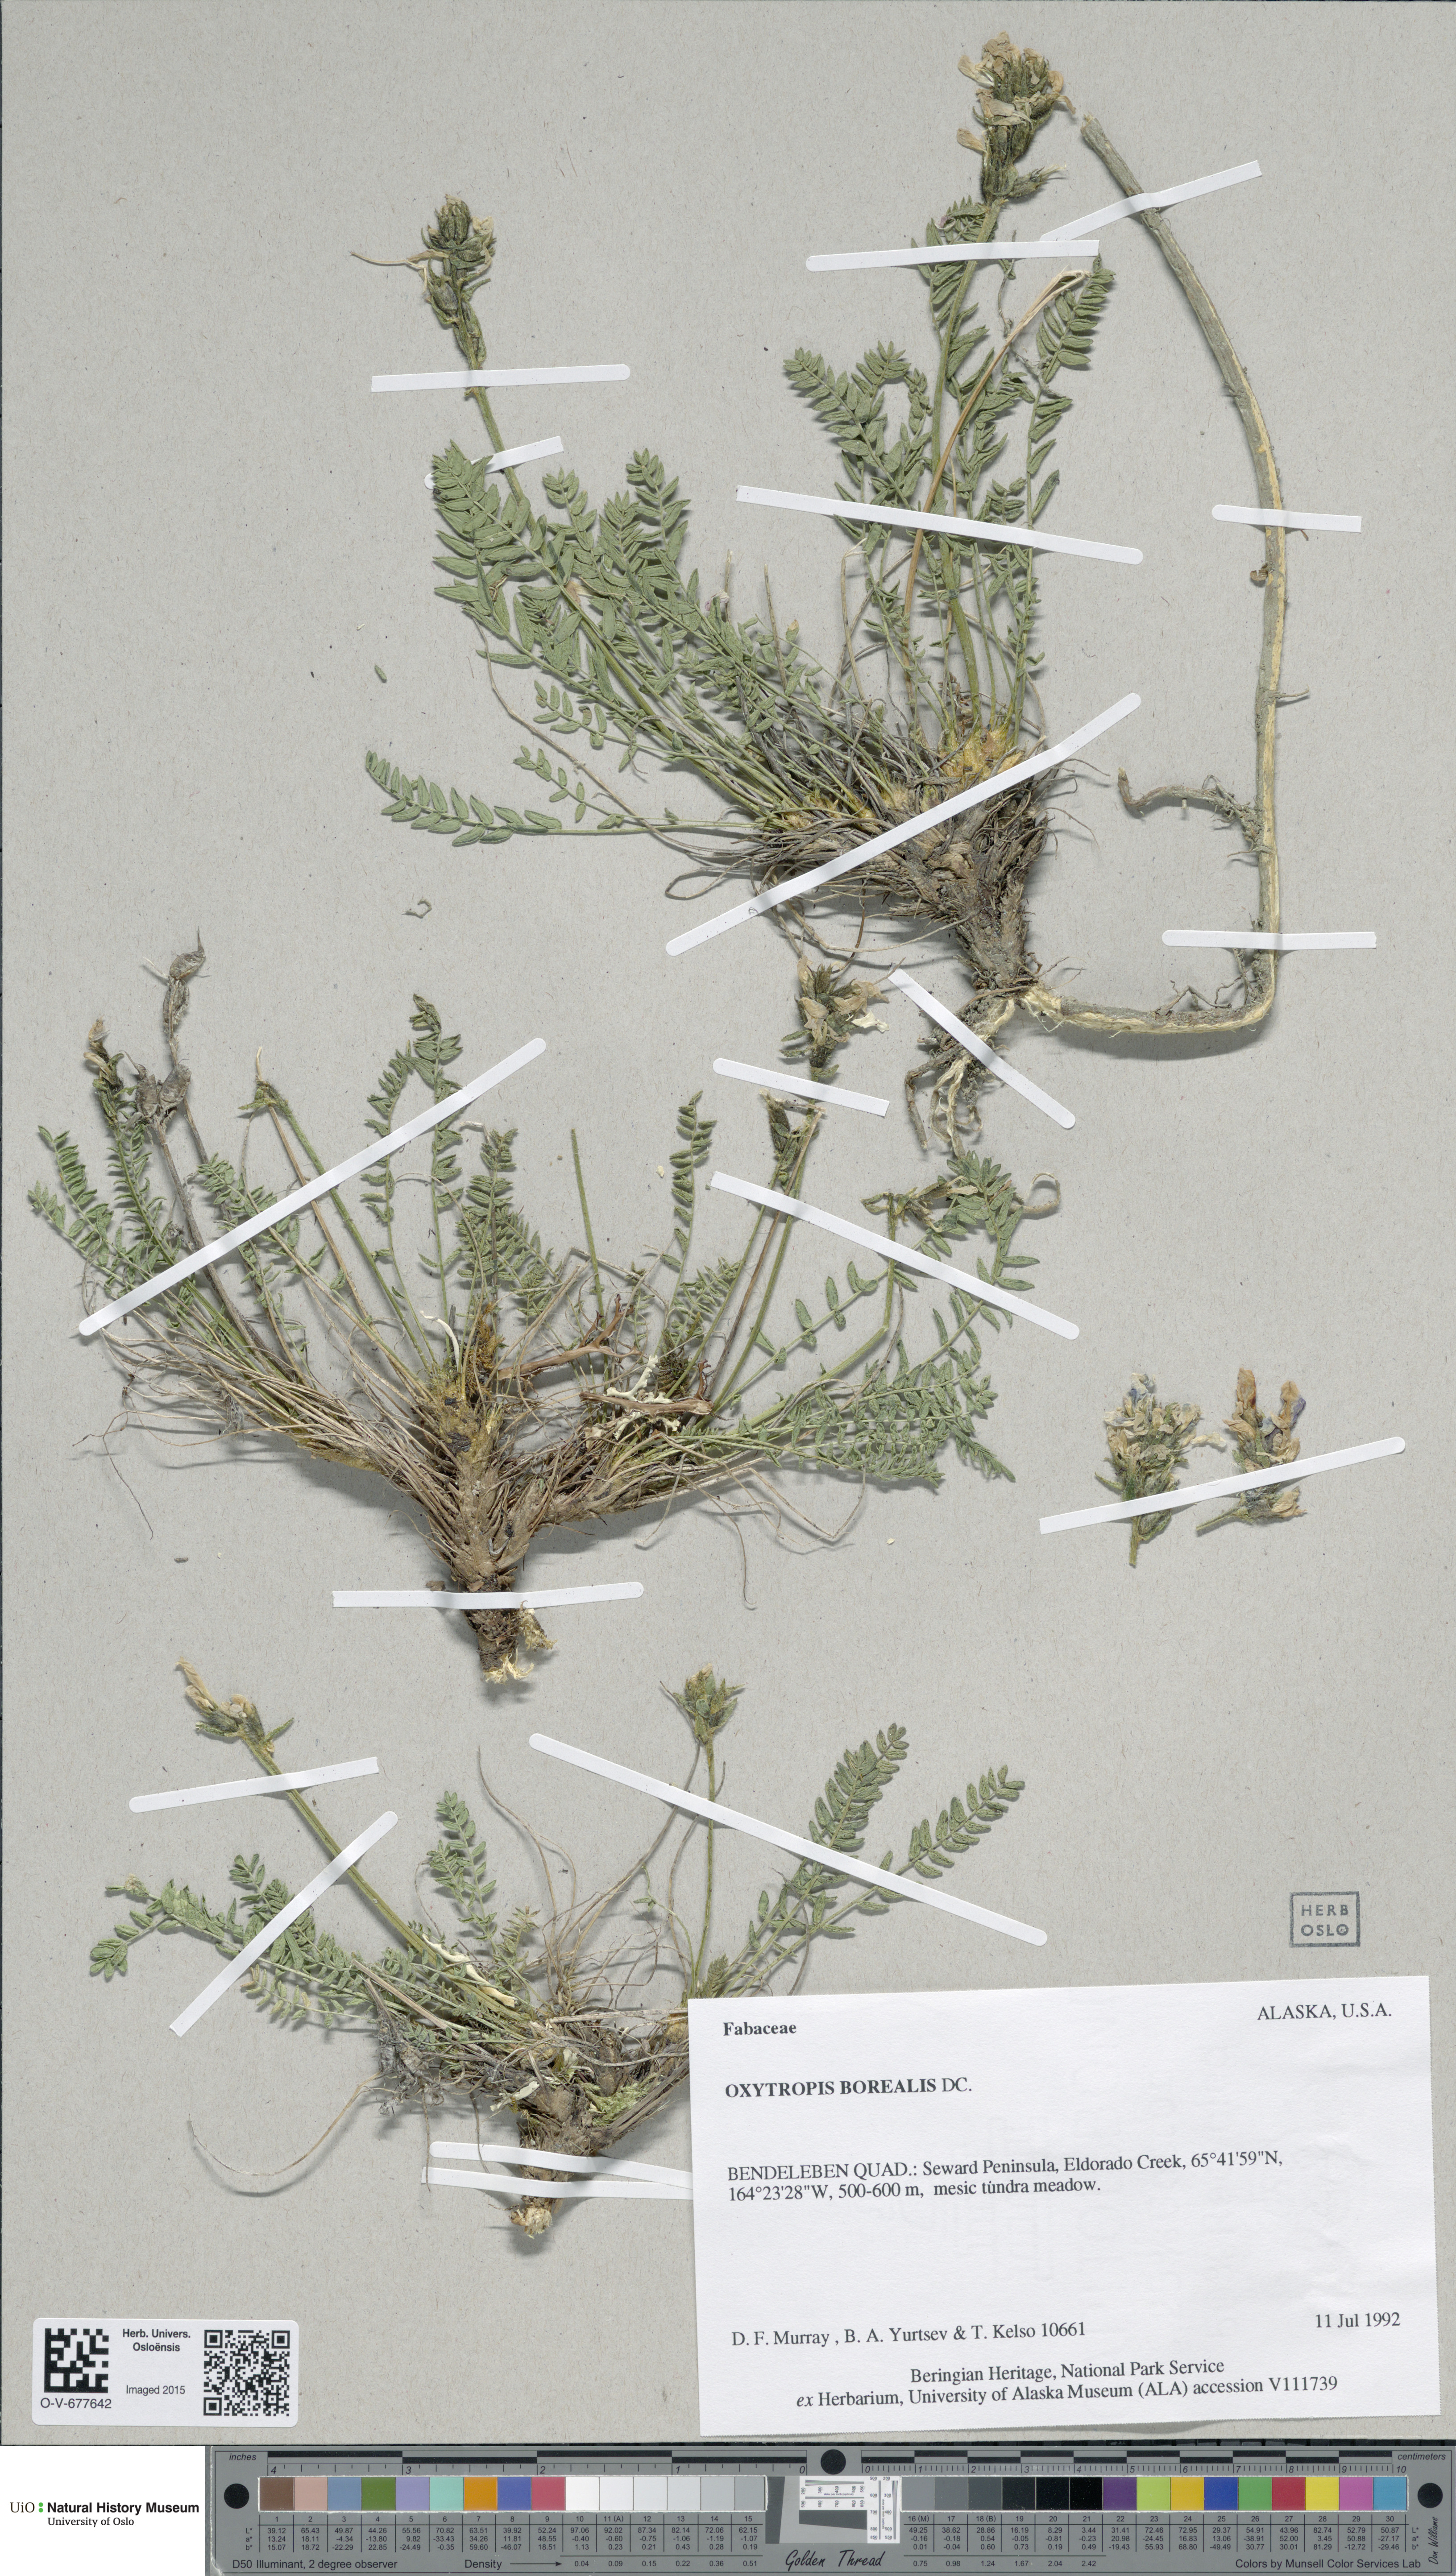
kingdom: Plantae
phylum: Tracheophyta
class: Magnoliopsida
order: Fabales
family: Fabaceae
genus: Oxytropis
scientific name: Oxytropis borealis
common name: Boreal locoweed
